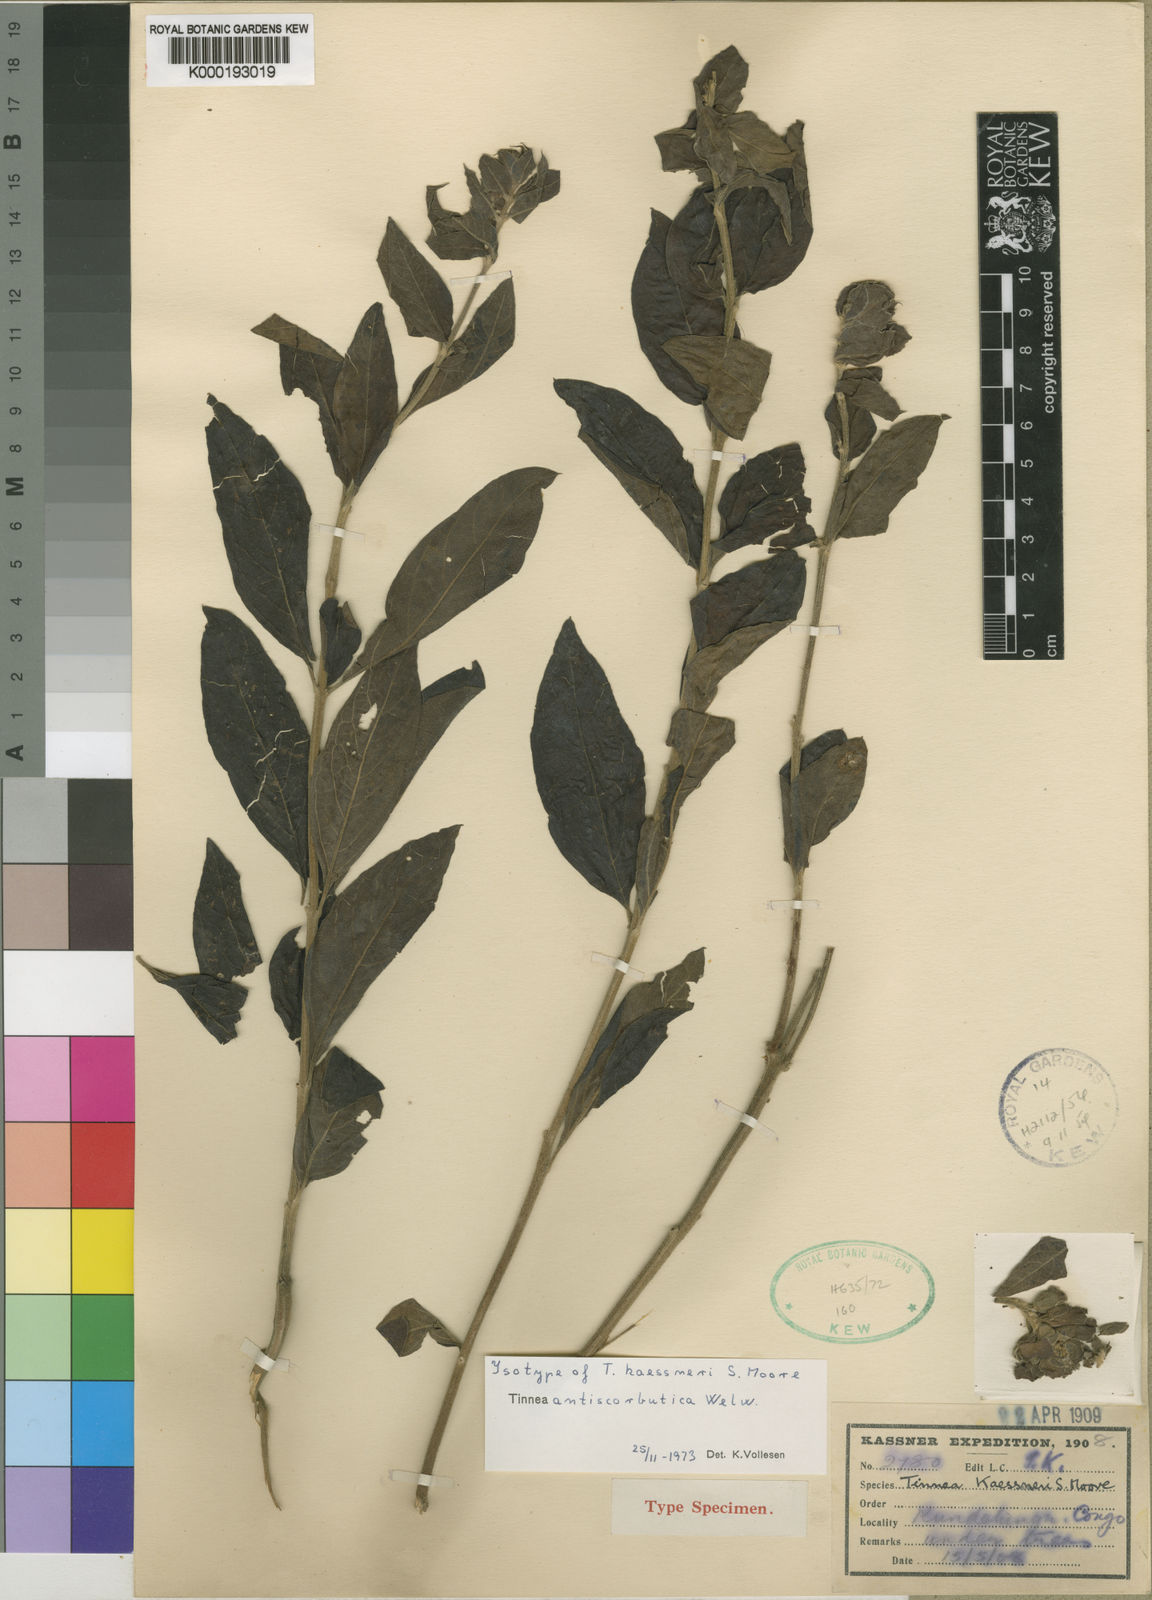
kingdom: Plantae
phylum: Tracheophyta
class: Magnoliopsida
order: Lamiales
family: Lamiaceae
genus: Tinnea
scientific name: Tinnea antiscorbutica
